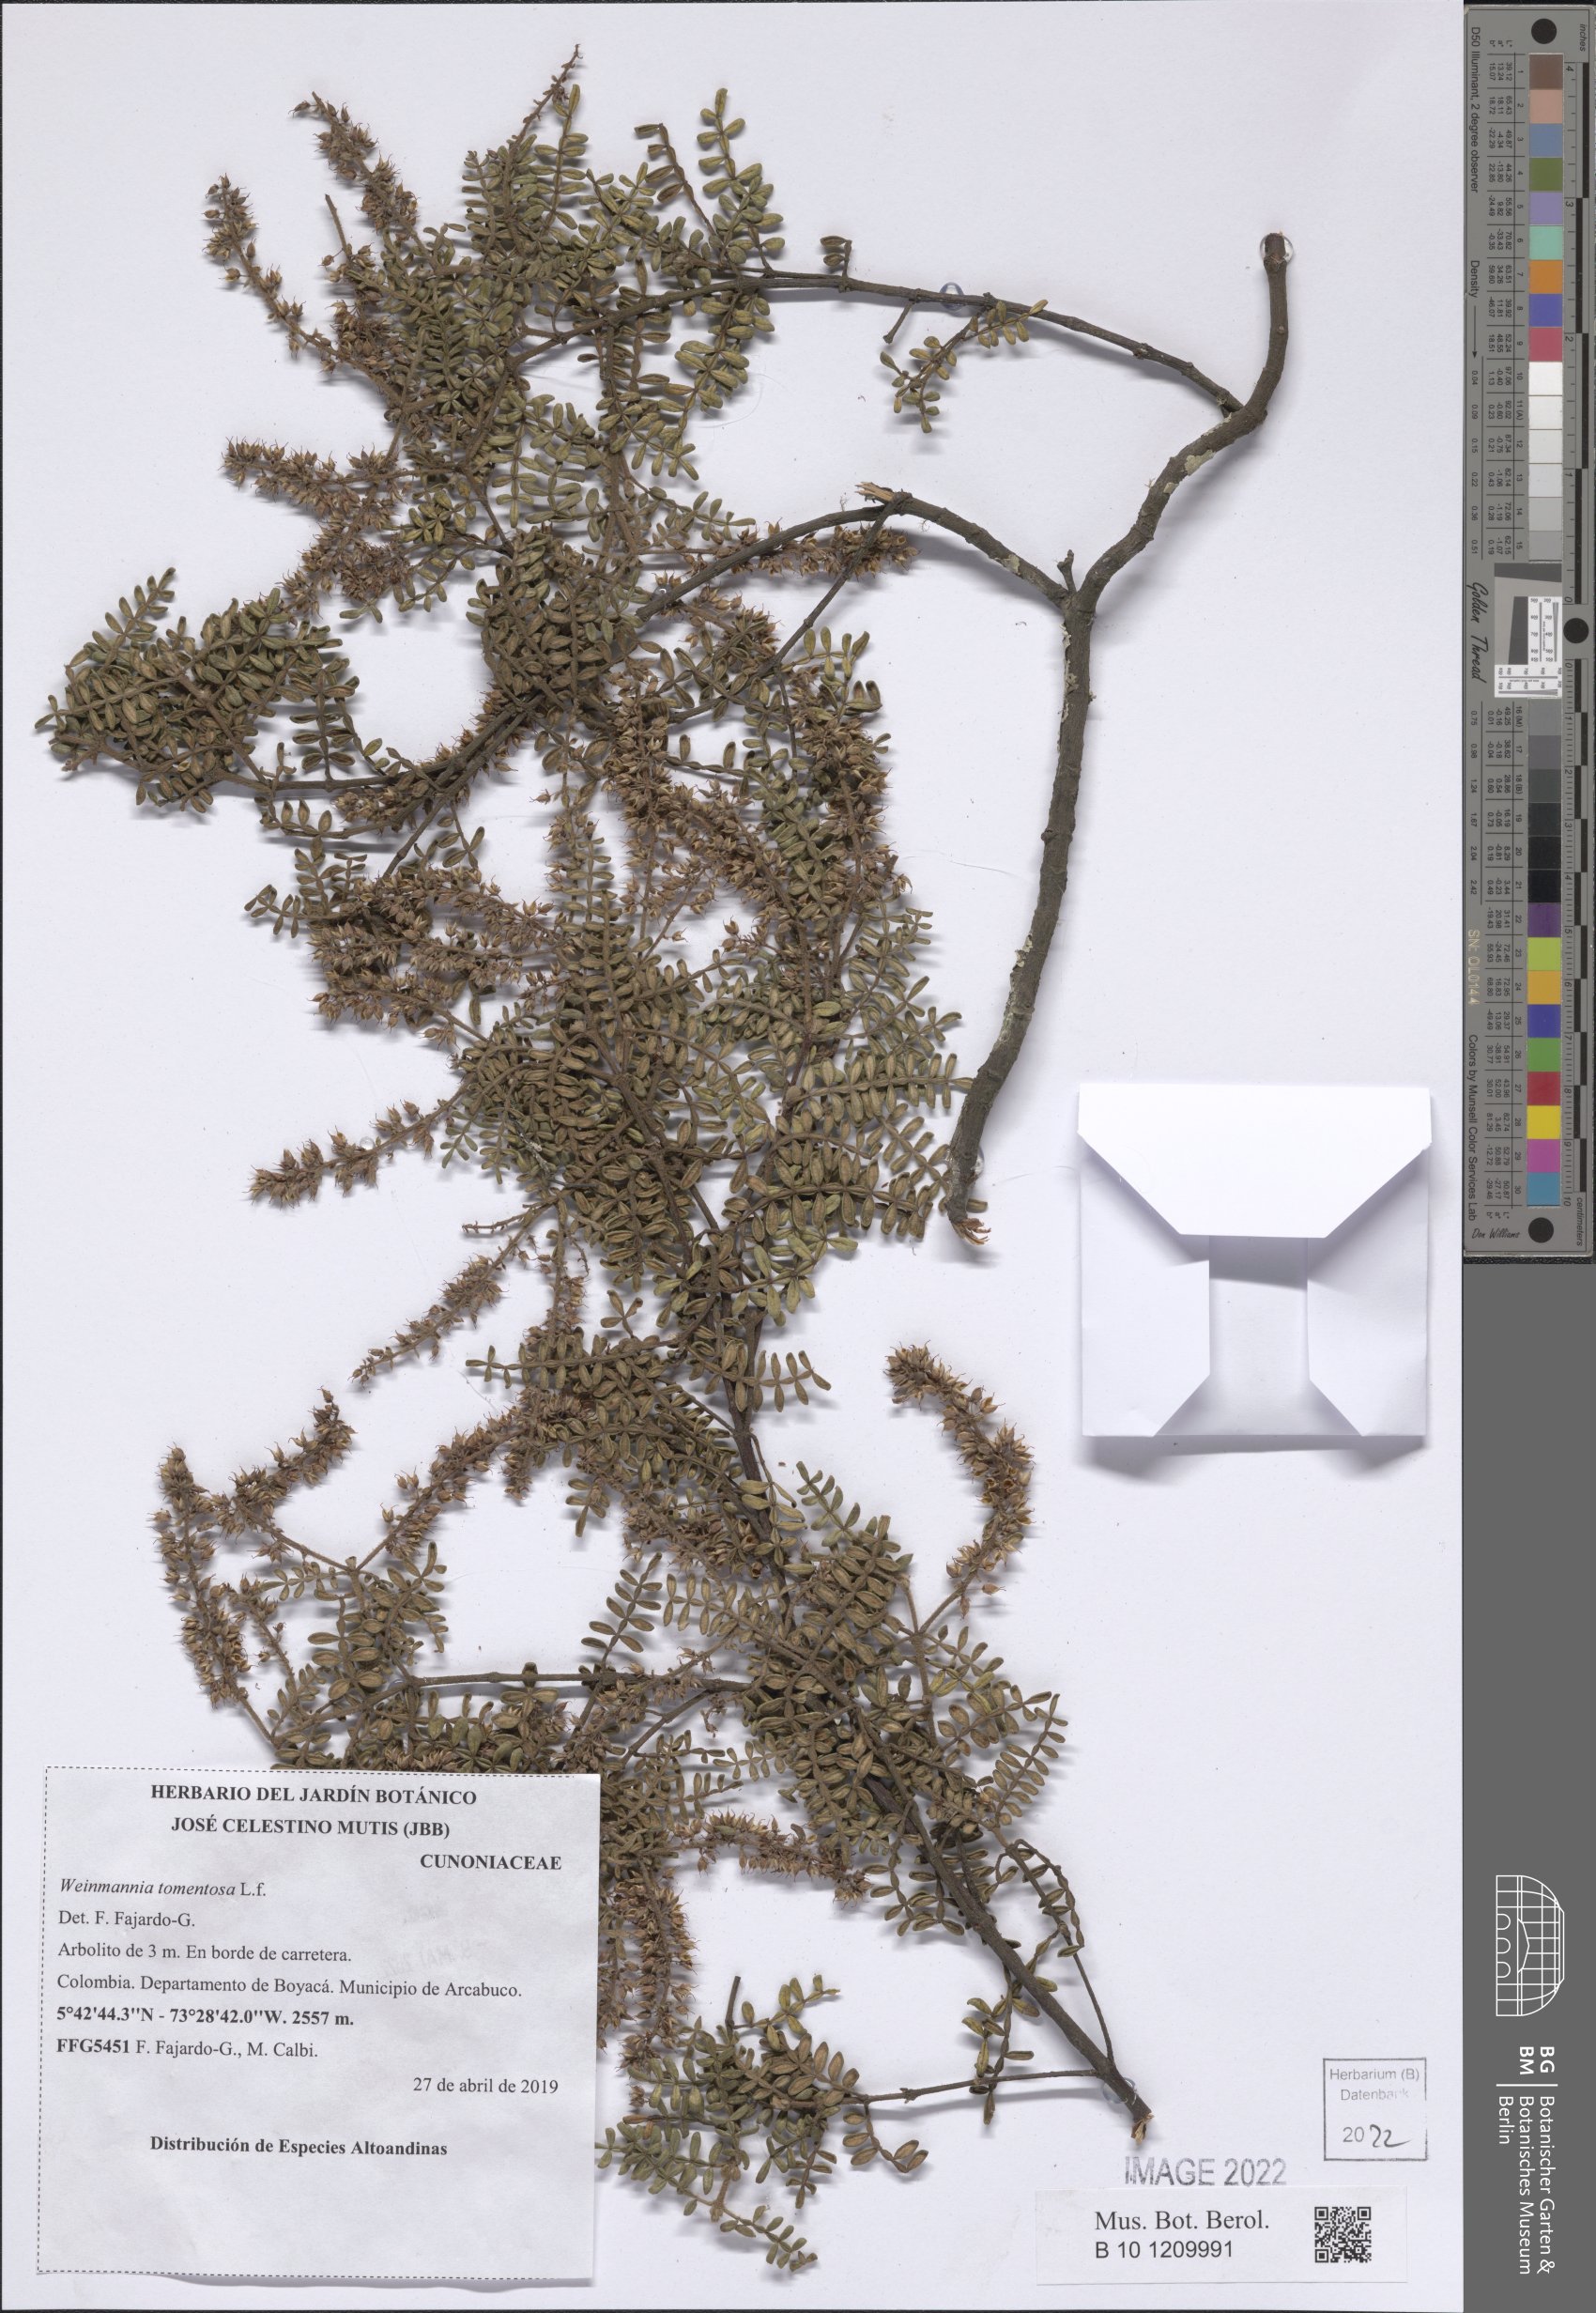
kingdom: Plantae
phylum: Tracheophyta
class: Magnoliopsida
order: Oxalidales
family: Cunoniaceae
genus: Weinmannia
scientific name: Weinmannia tomentosa
